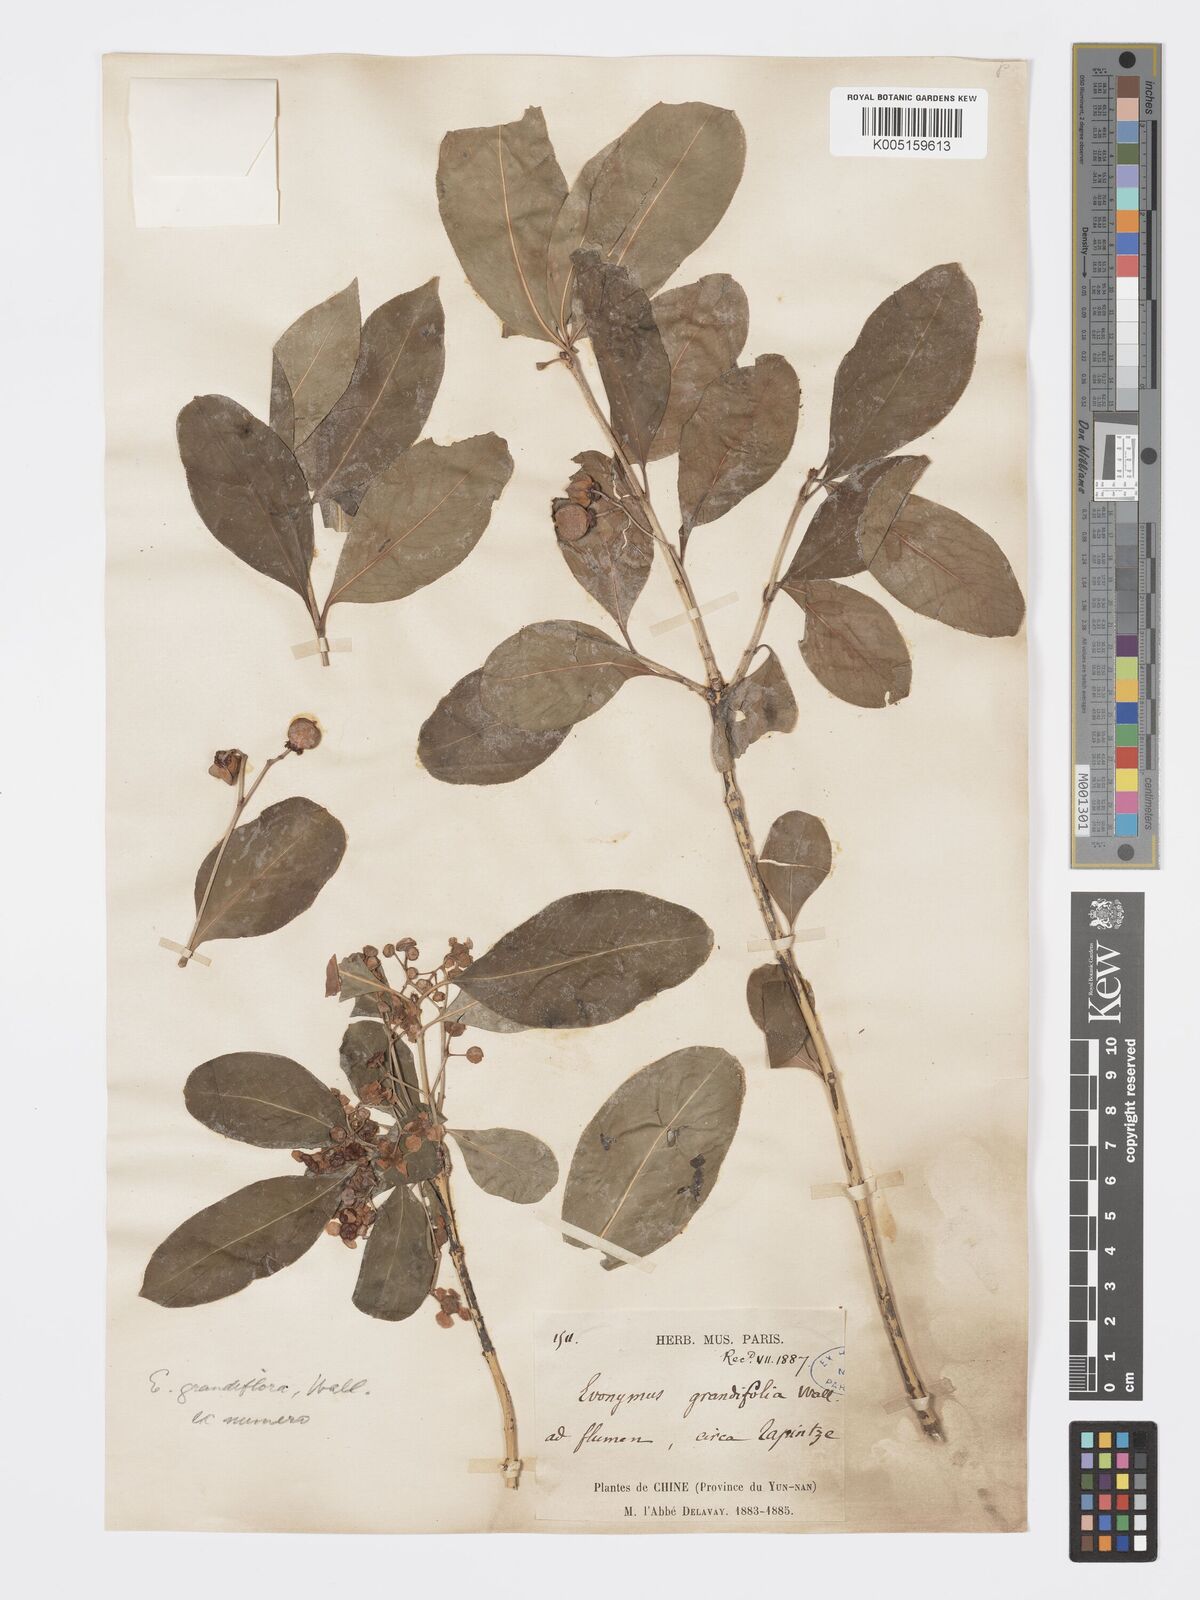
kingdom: Plantae
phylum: Tracheophyta
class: Magnoliopsida
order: Celastrales
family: Celastraceae
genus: Euonymus
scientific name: Euonymus grandiflorus
